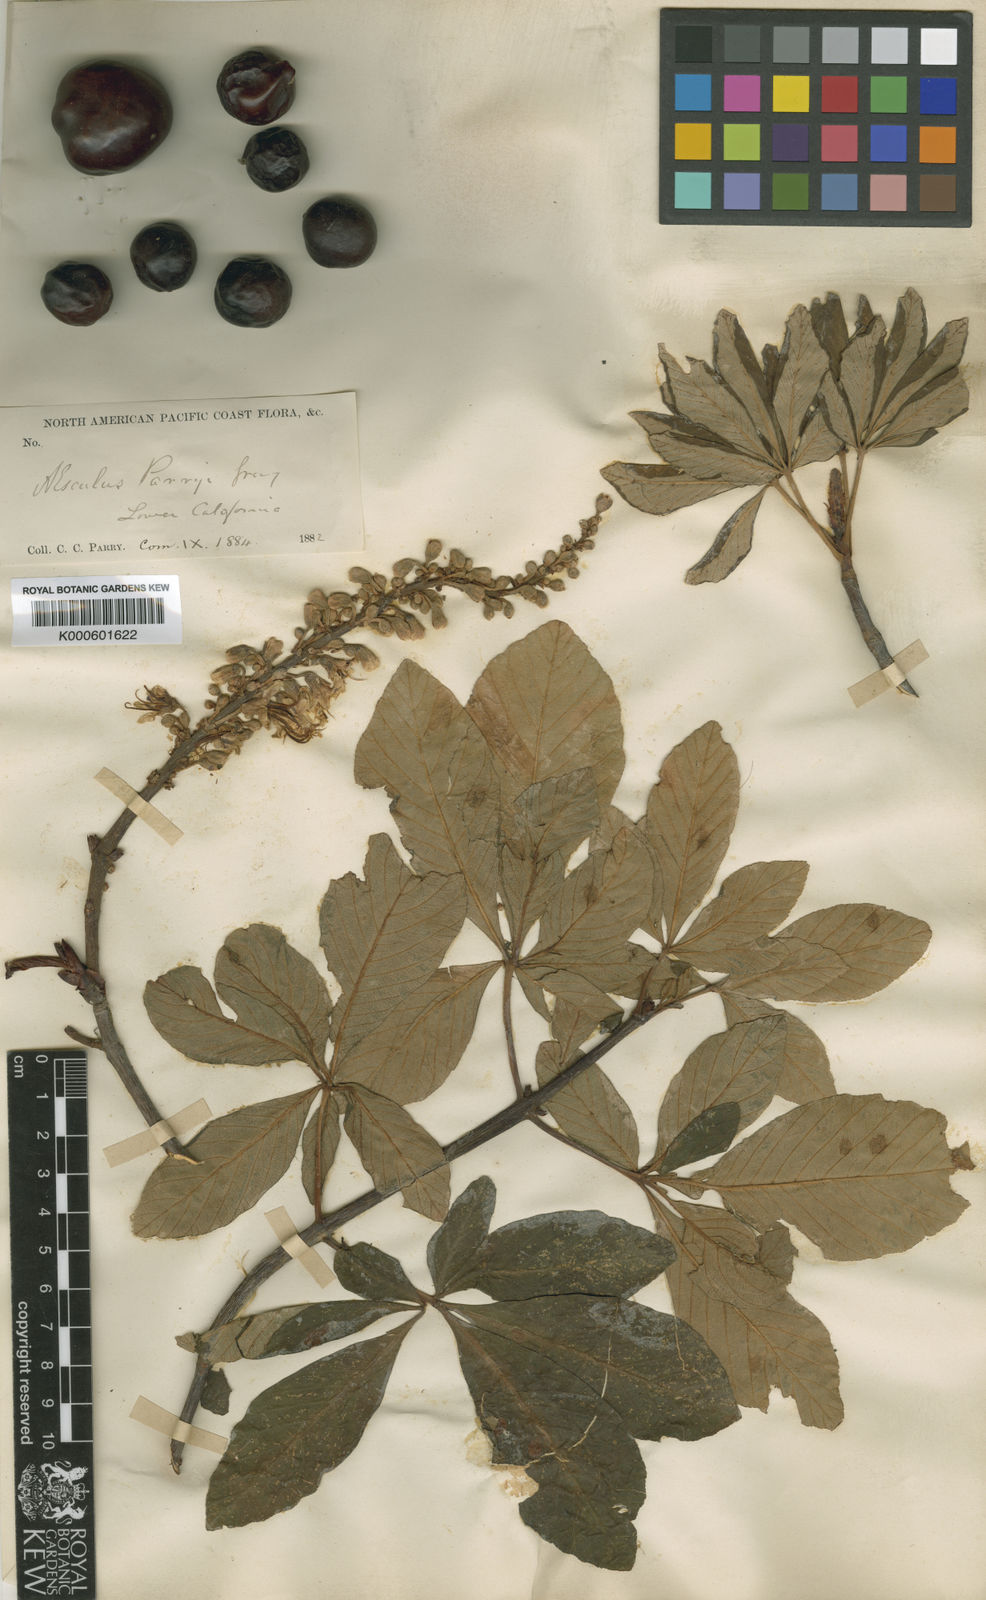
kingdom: Plantae
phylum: Tracheophyta
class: Magnoliopsida
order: Sapindales
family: Sapindaceae
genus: Aesculus
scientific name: Aesculus parryi
